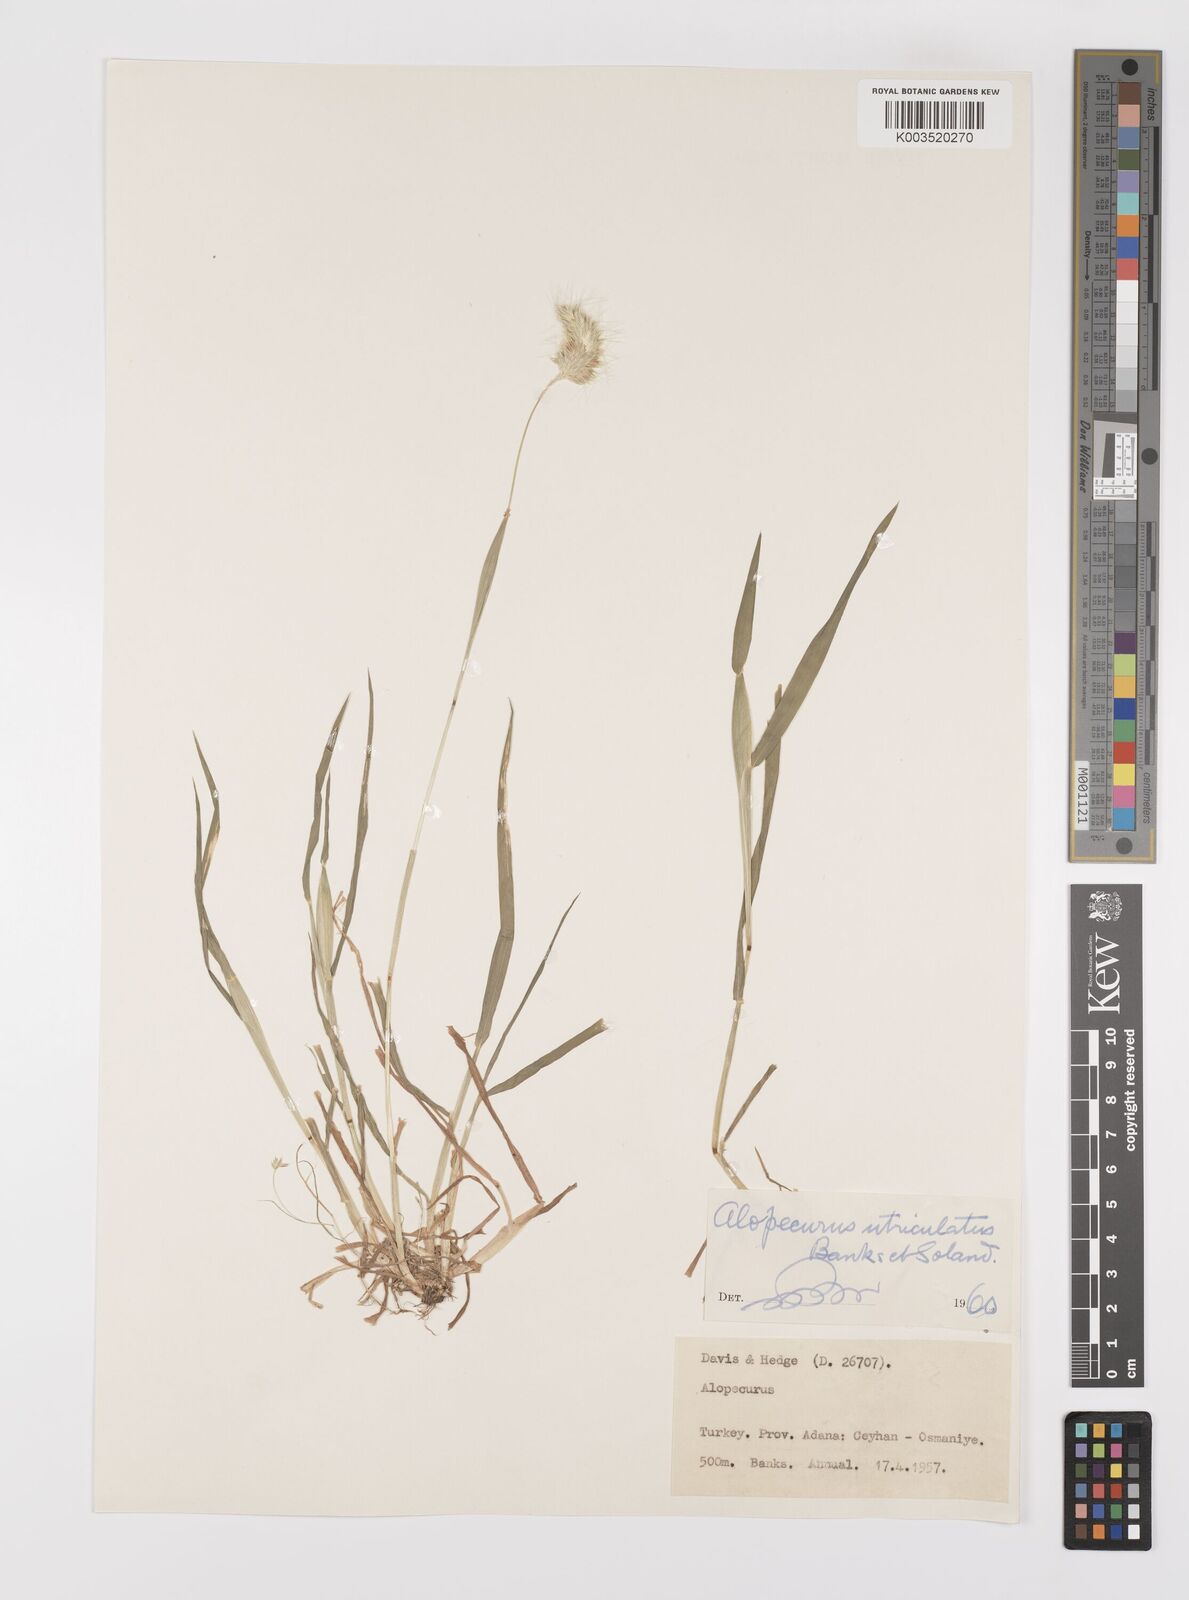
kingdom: Plantae
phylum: Tracheophyta
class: Liliopsida
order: Poales
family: Poaceae
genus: Alopecurus
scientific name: Alopecurus utriculatus
